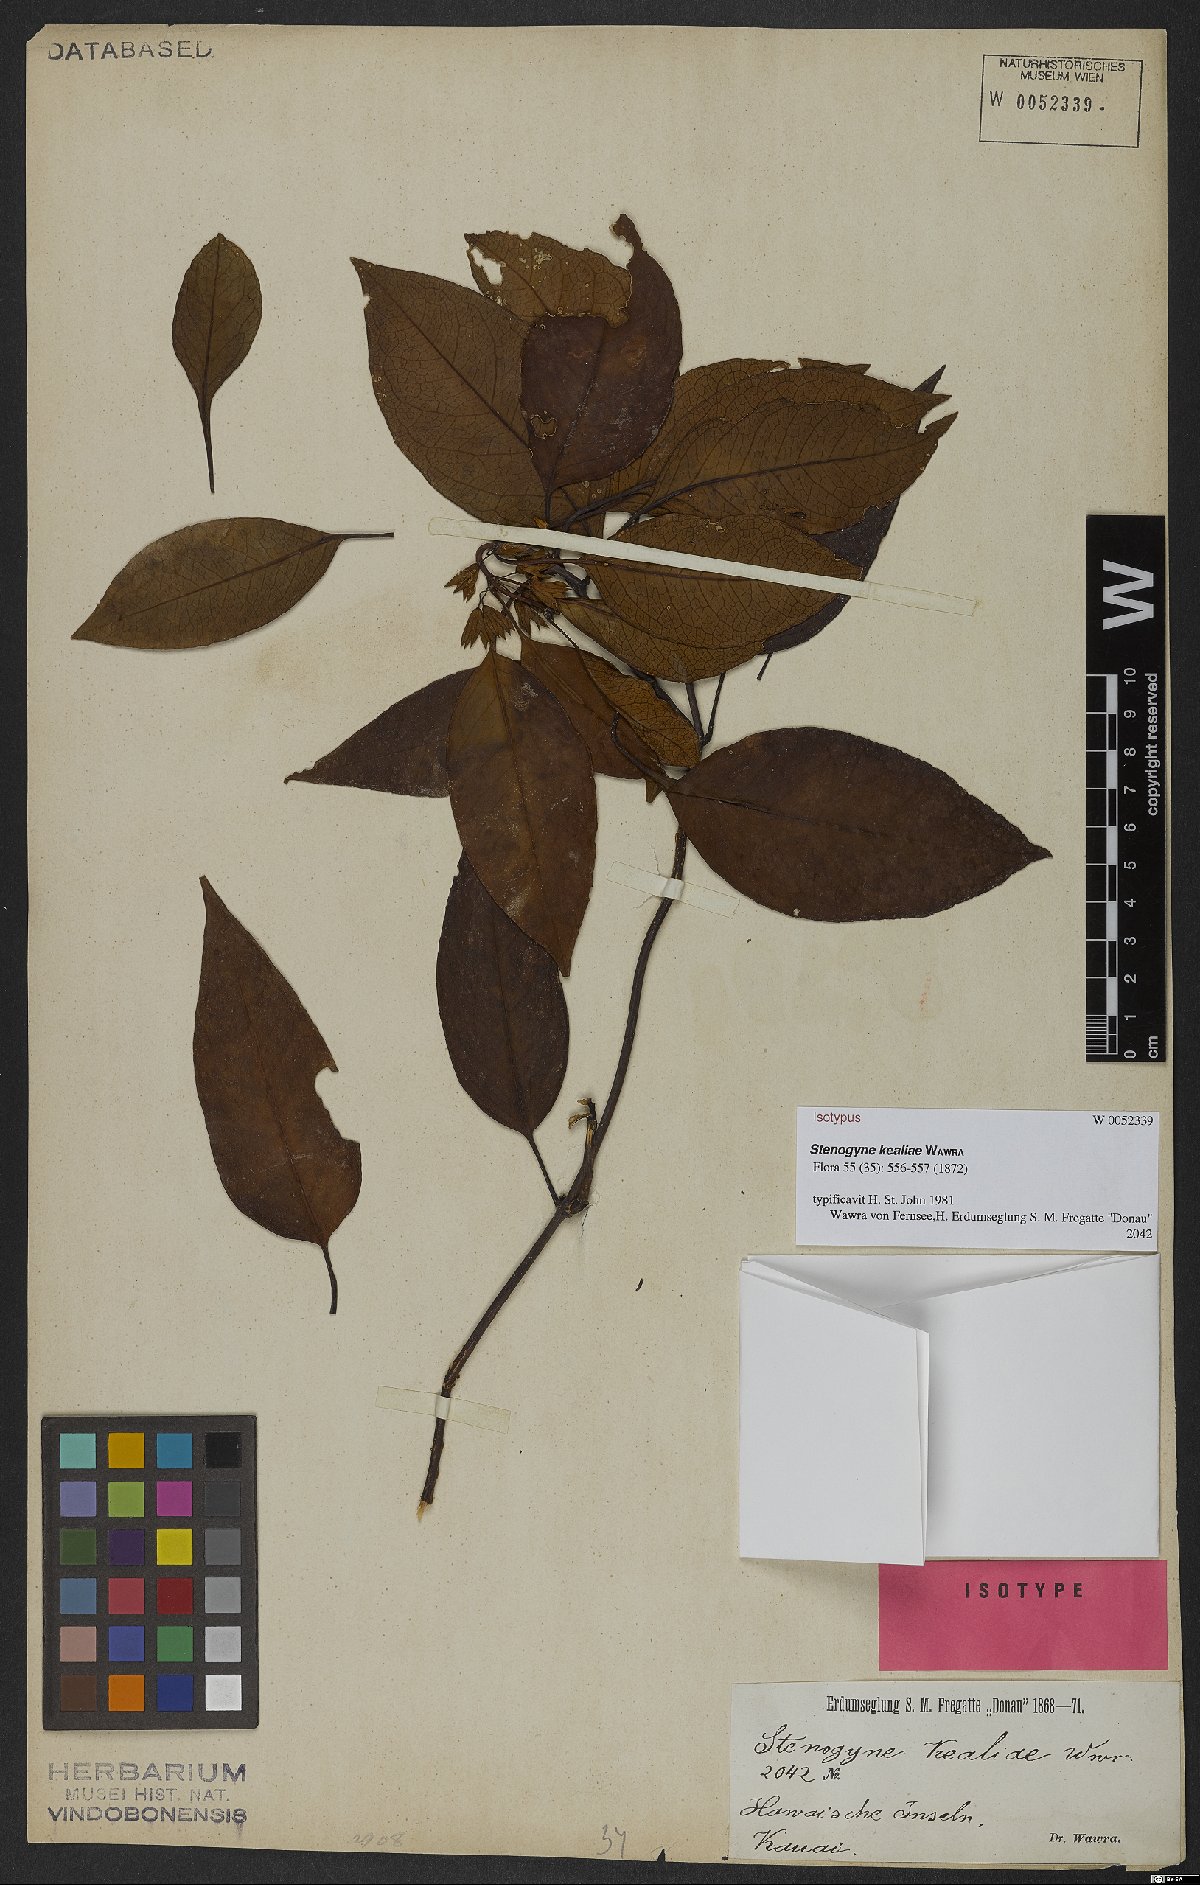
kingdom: Plantae
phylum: Tracheophyta
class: Magnoliopsida
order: Lamiales
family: Lamiaceae
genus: Stenogyne
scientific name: Stenogyne purpurea
